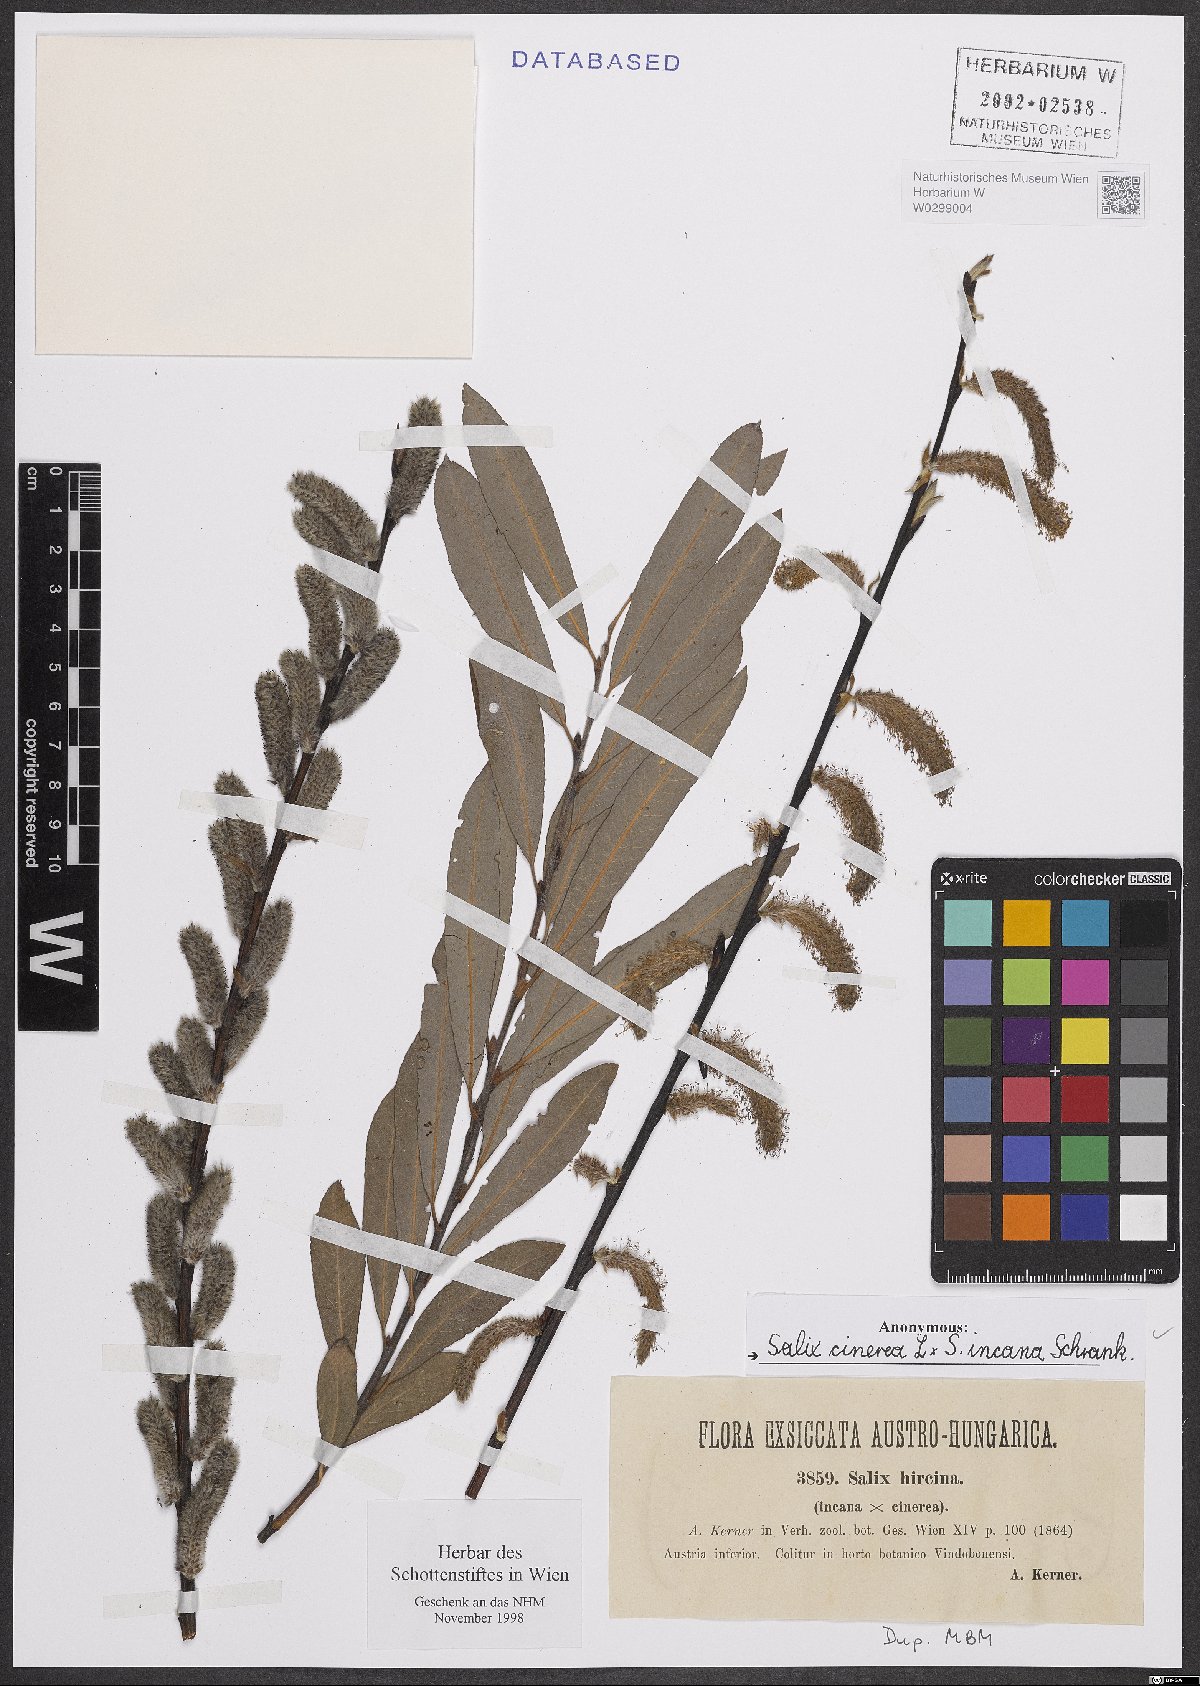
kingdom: Plantae
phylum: Tracheophyta
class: Magnoliopsida
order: Malpighiales
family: Salicaceae
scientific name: Salicaceae
